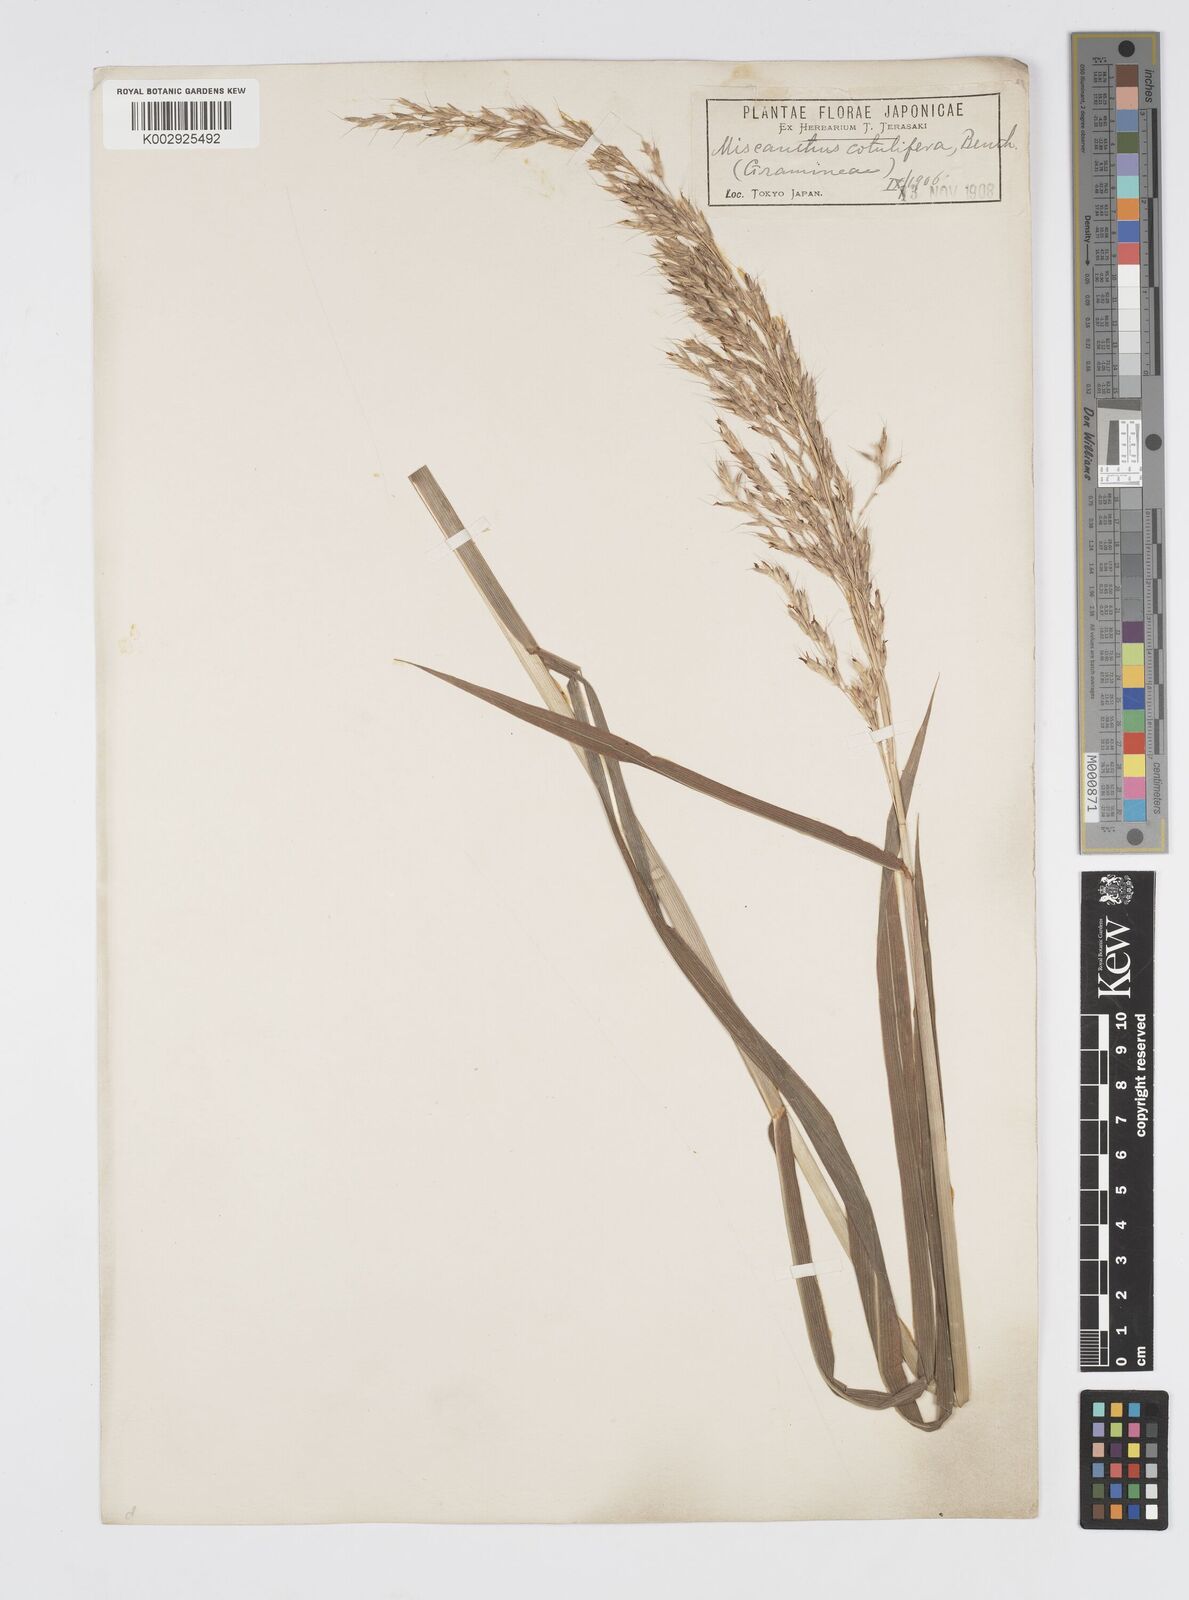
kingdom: Plantae
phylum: Tracheophyta
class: Liliopsida
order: Poales
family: Poaceae
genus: Spodiopogon
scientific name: Spodiopogon sibiricus
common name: Siberian graybeard
